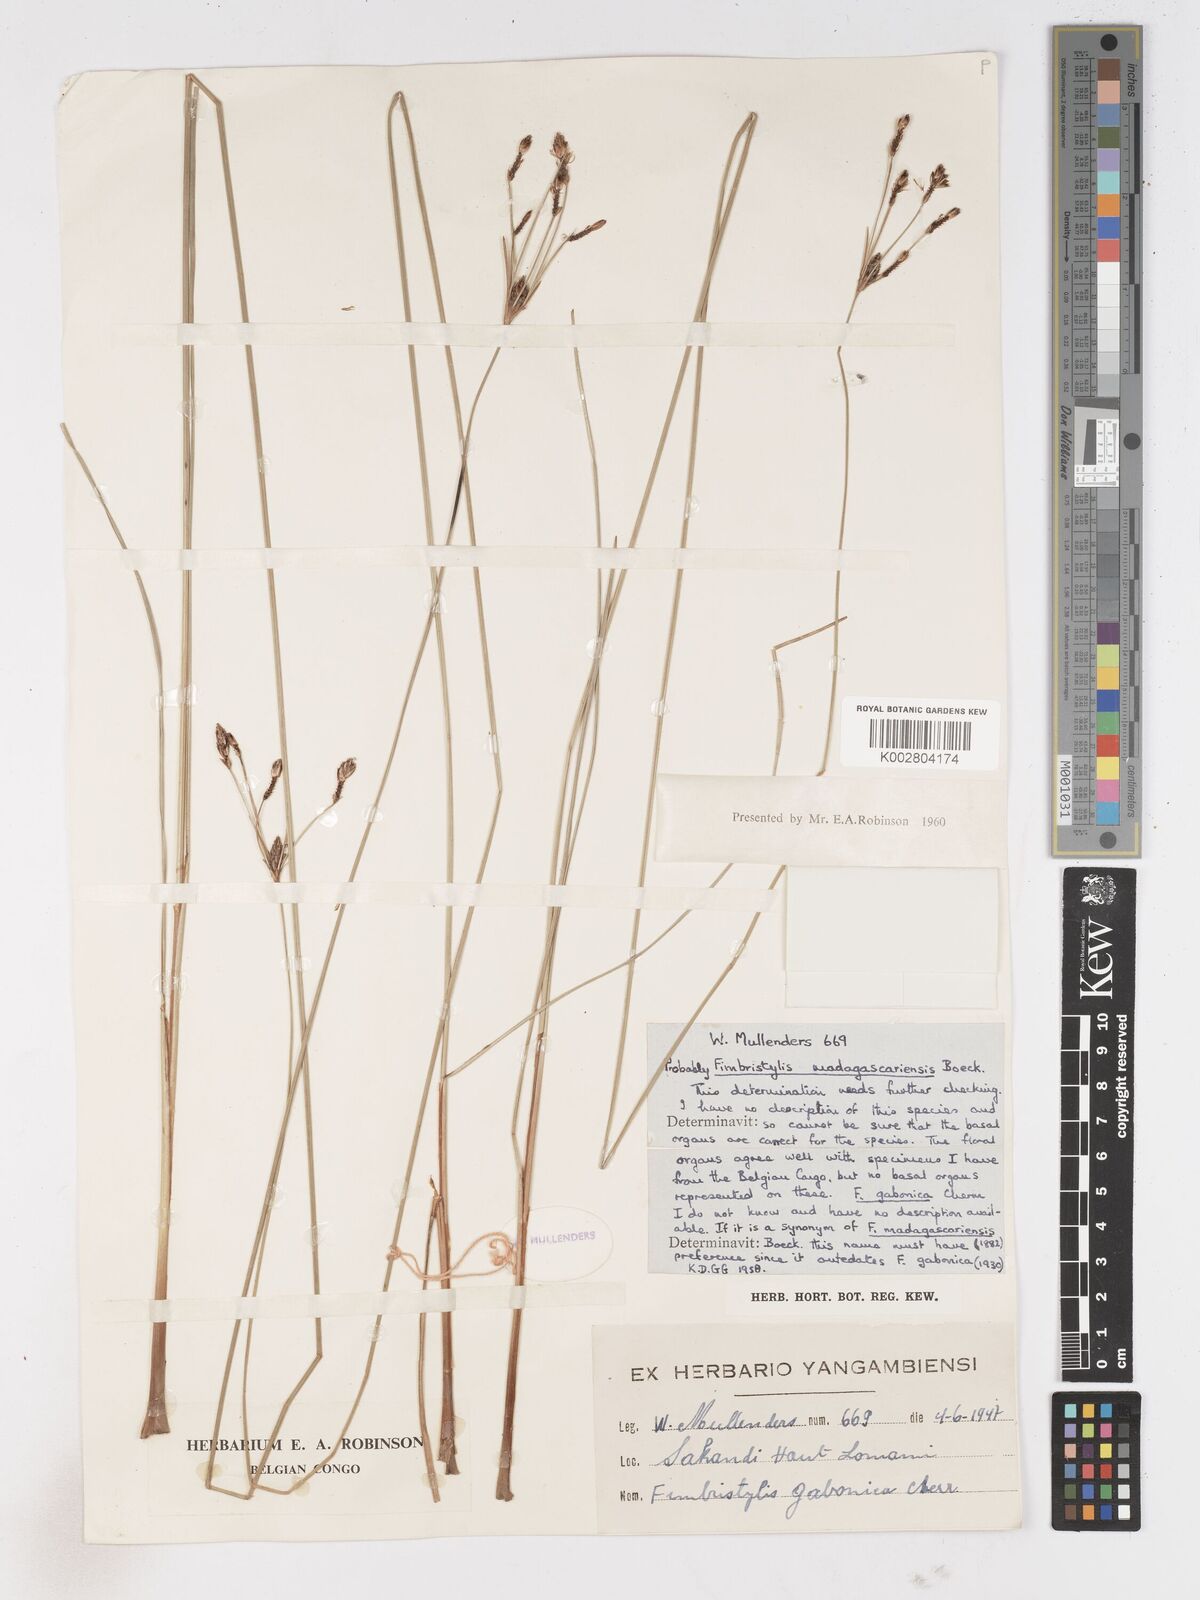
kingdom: Plantae
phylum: Tracheophyta
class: Liliopsida
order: Poales
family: Cyperaceae
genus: Fimbristylis
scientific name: Fimbristylis madagascariensis
